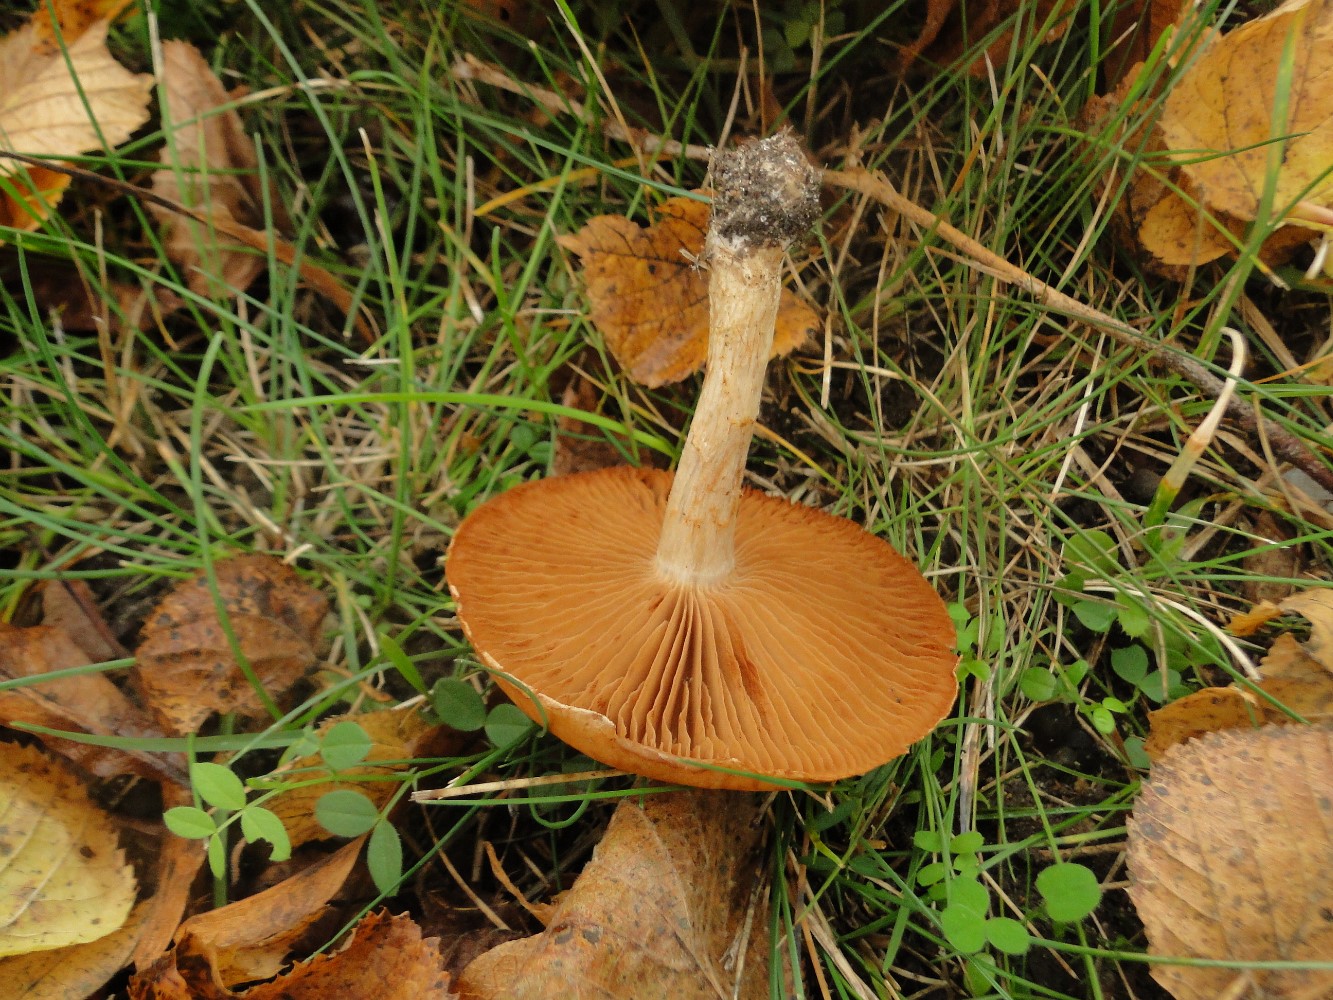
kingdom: Fungi
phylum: Basidiomycota
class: Agaricomycetes
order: Agaricales
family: Cortinariaceae
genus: Cortinarius
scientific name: Cortinarius
